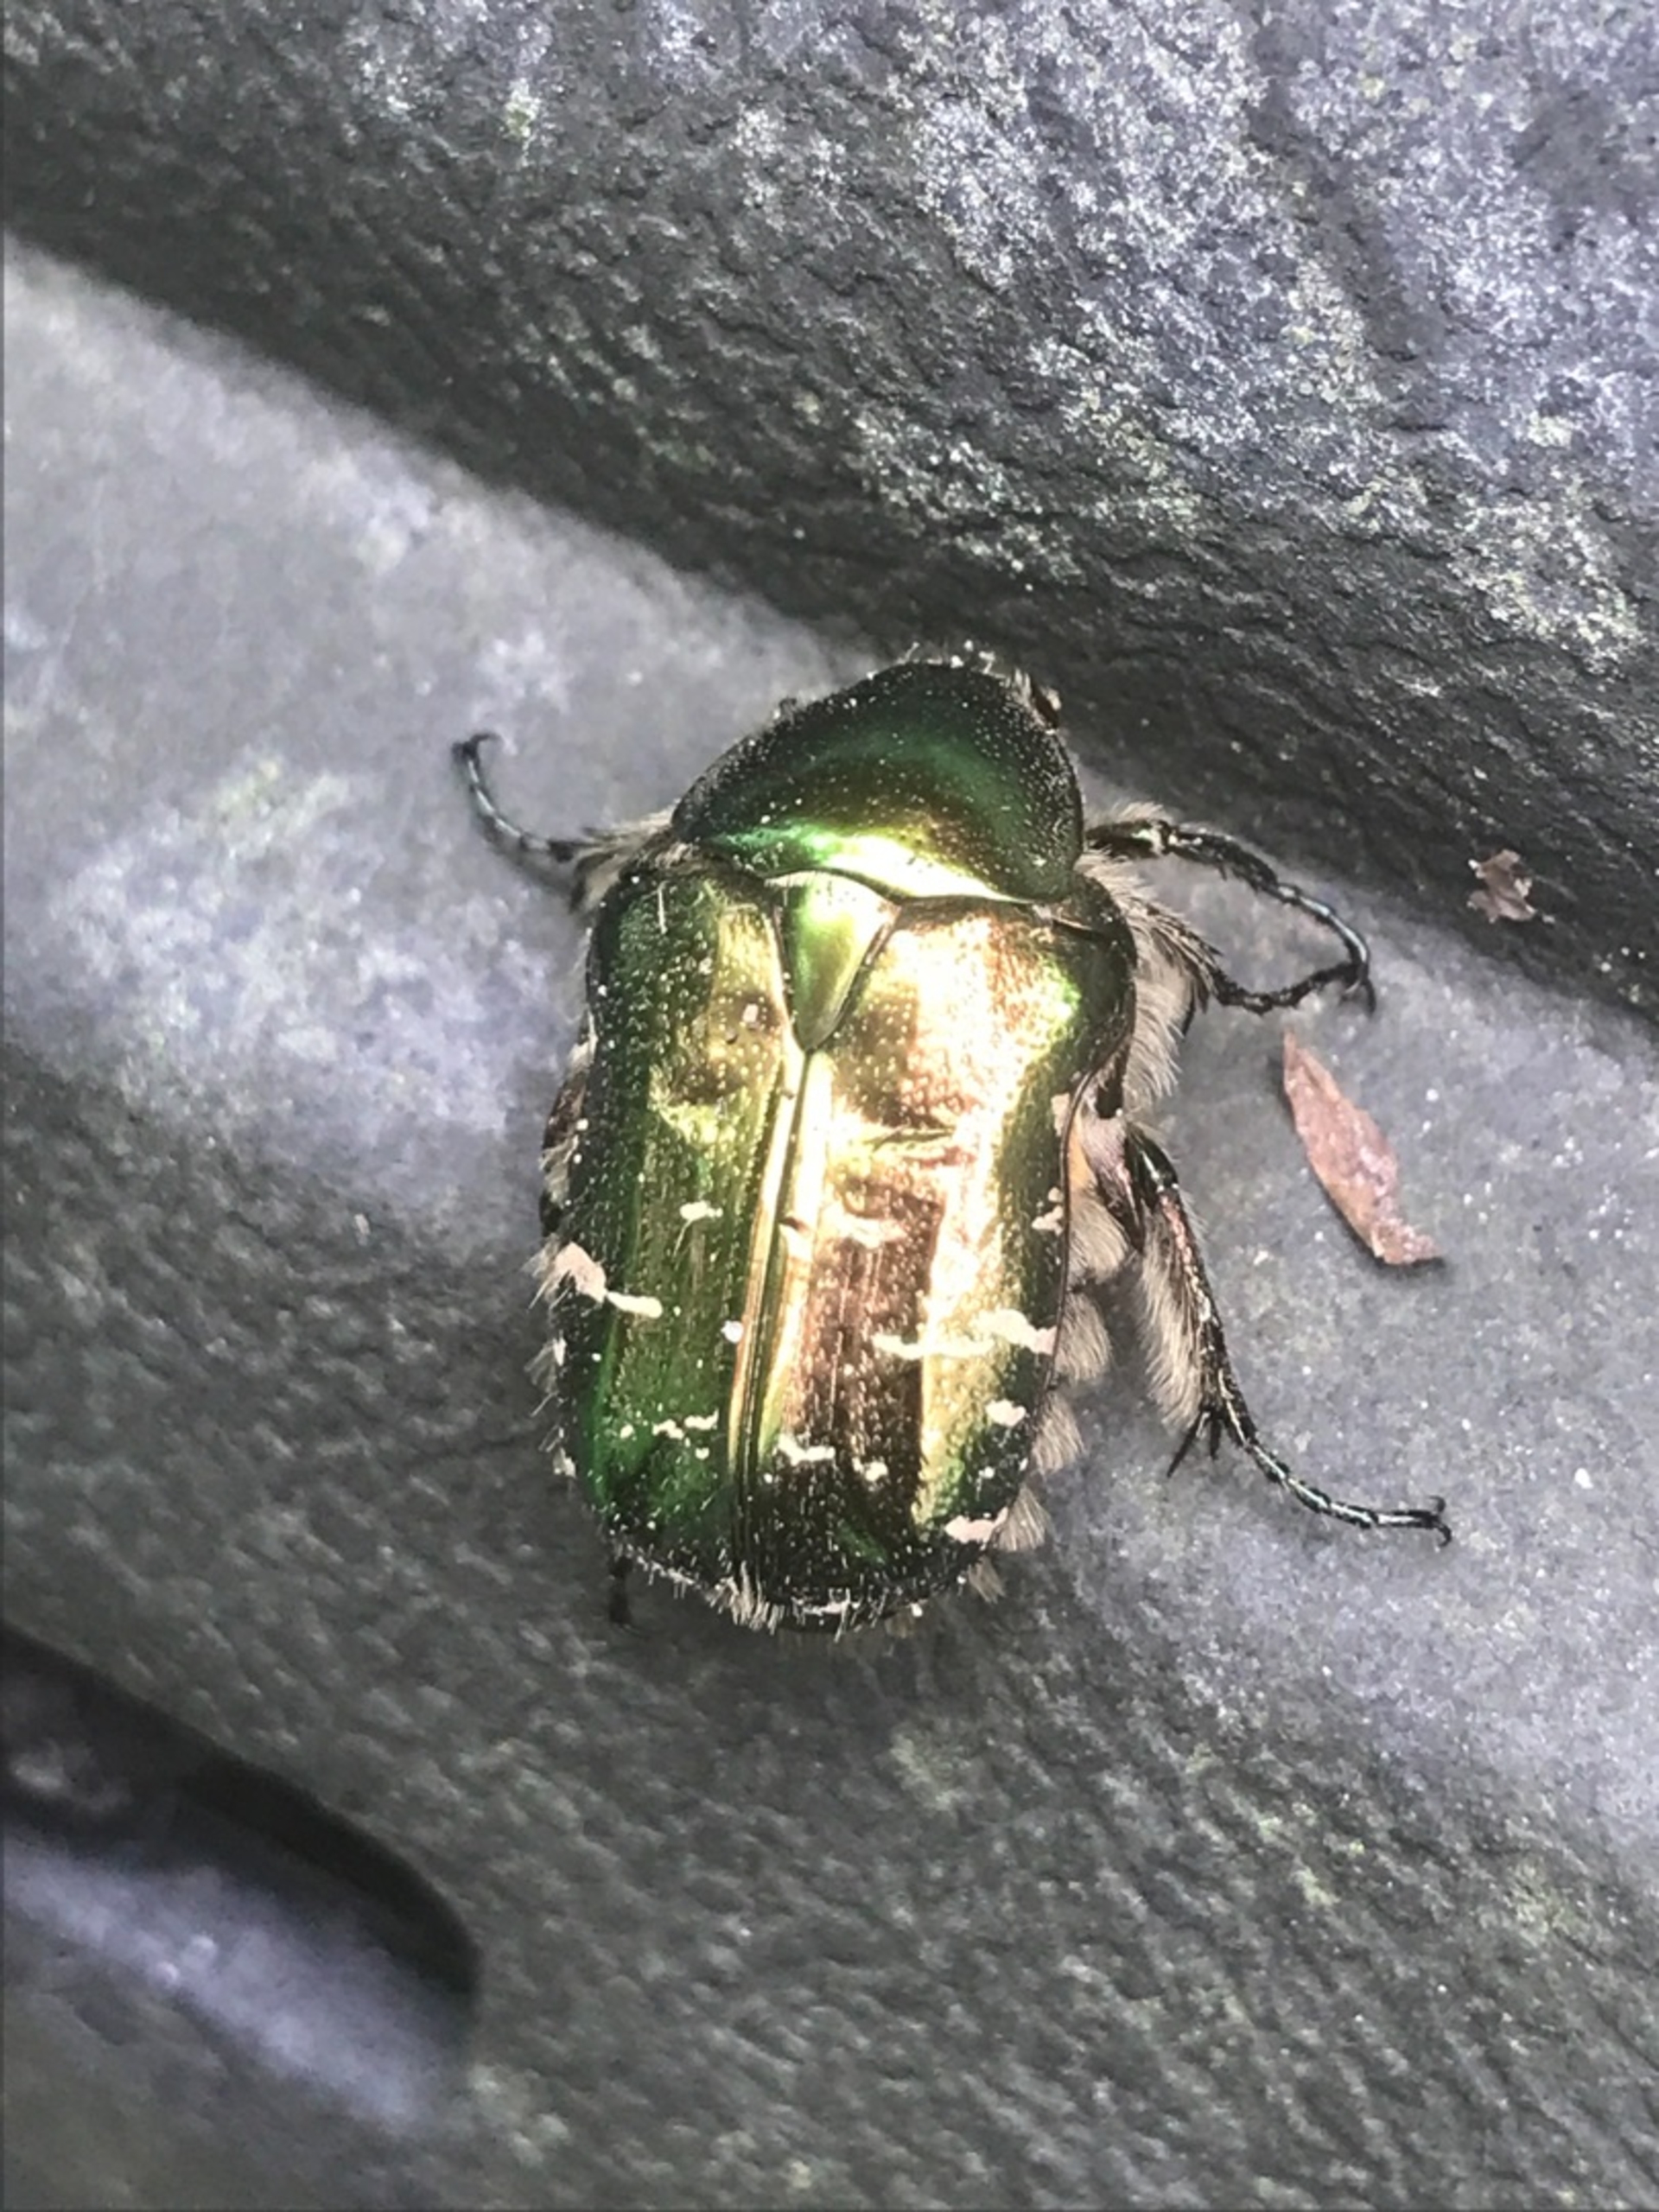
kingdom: Animalia
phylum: Arthropoda
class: Insecta
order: Coleoptera
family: Scarabaeidae
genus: Cetonia
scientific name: Cetonia aurata
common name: Grøn guldbasse
